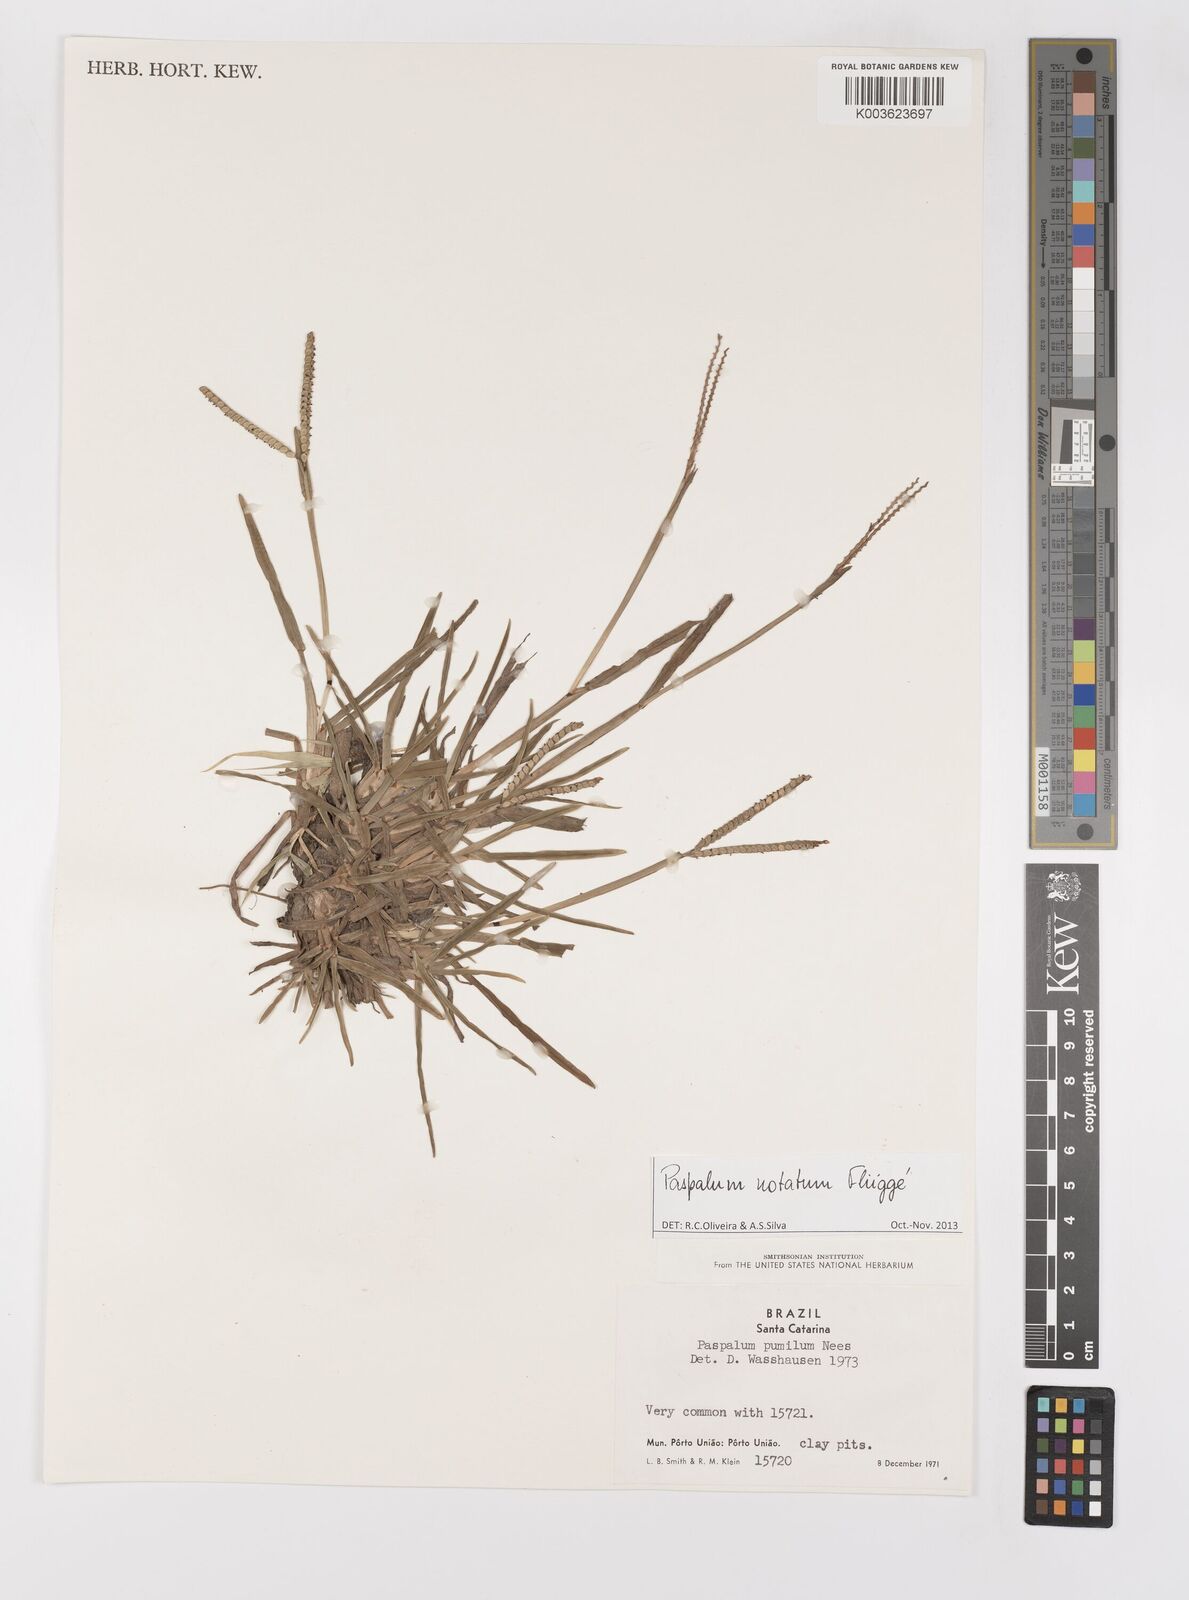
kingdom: Plantae
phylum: Tracheophyta
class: Liliopsida
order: Poales
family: Poaceae
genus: Paspalum
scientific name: Paspalum notatum
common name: Bahiagrass
